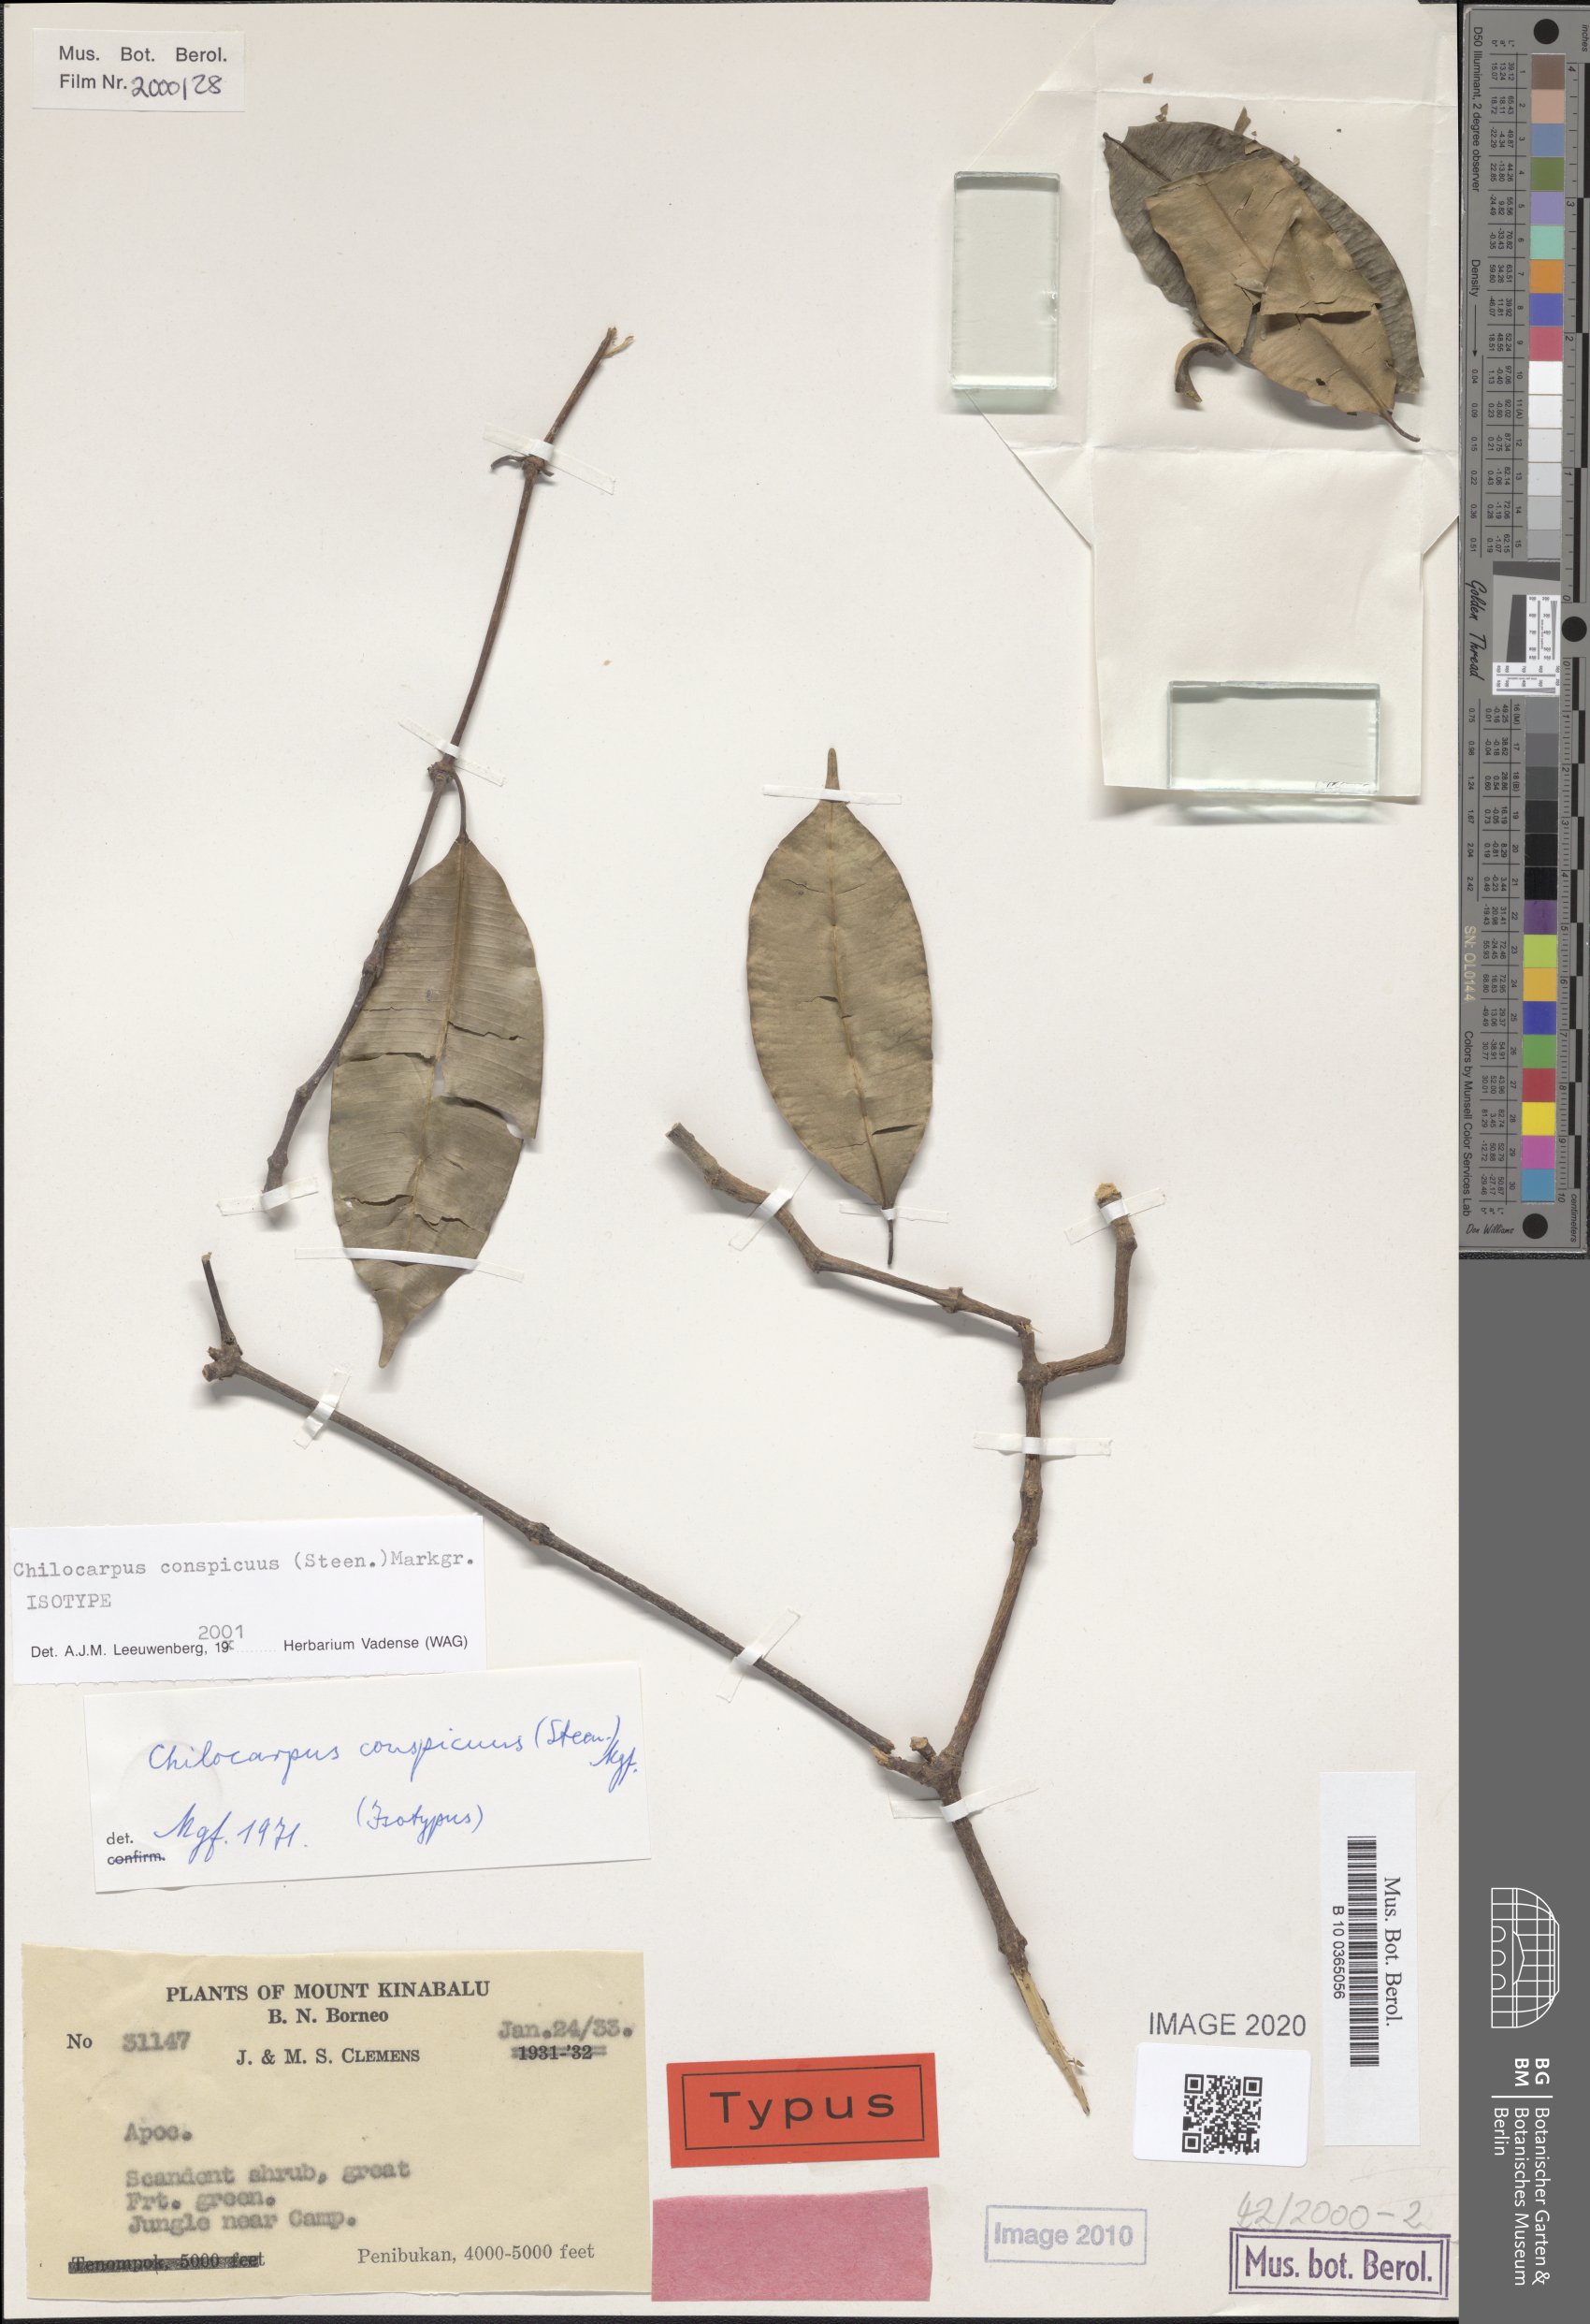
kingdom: Plantae
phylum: Tracheophyta
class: Magnoliopsida
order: Gentianales
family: Apocynaceae
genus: Chilocarpus
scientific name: Chilocarpus conspicuus
